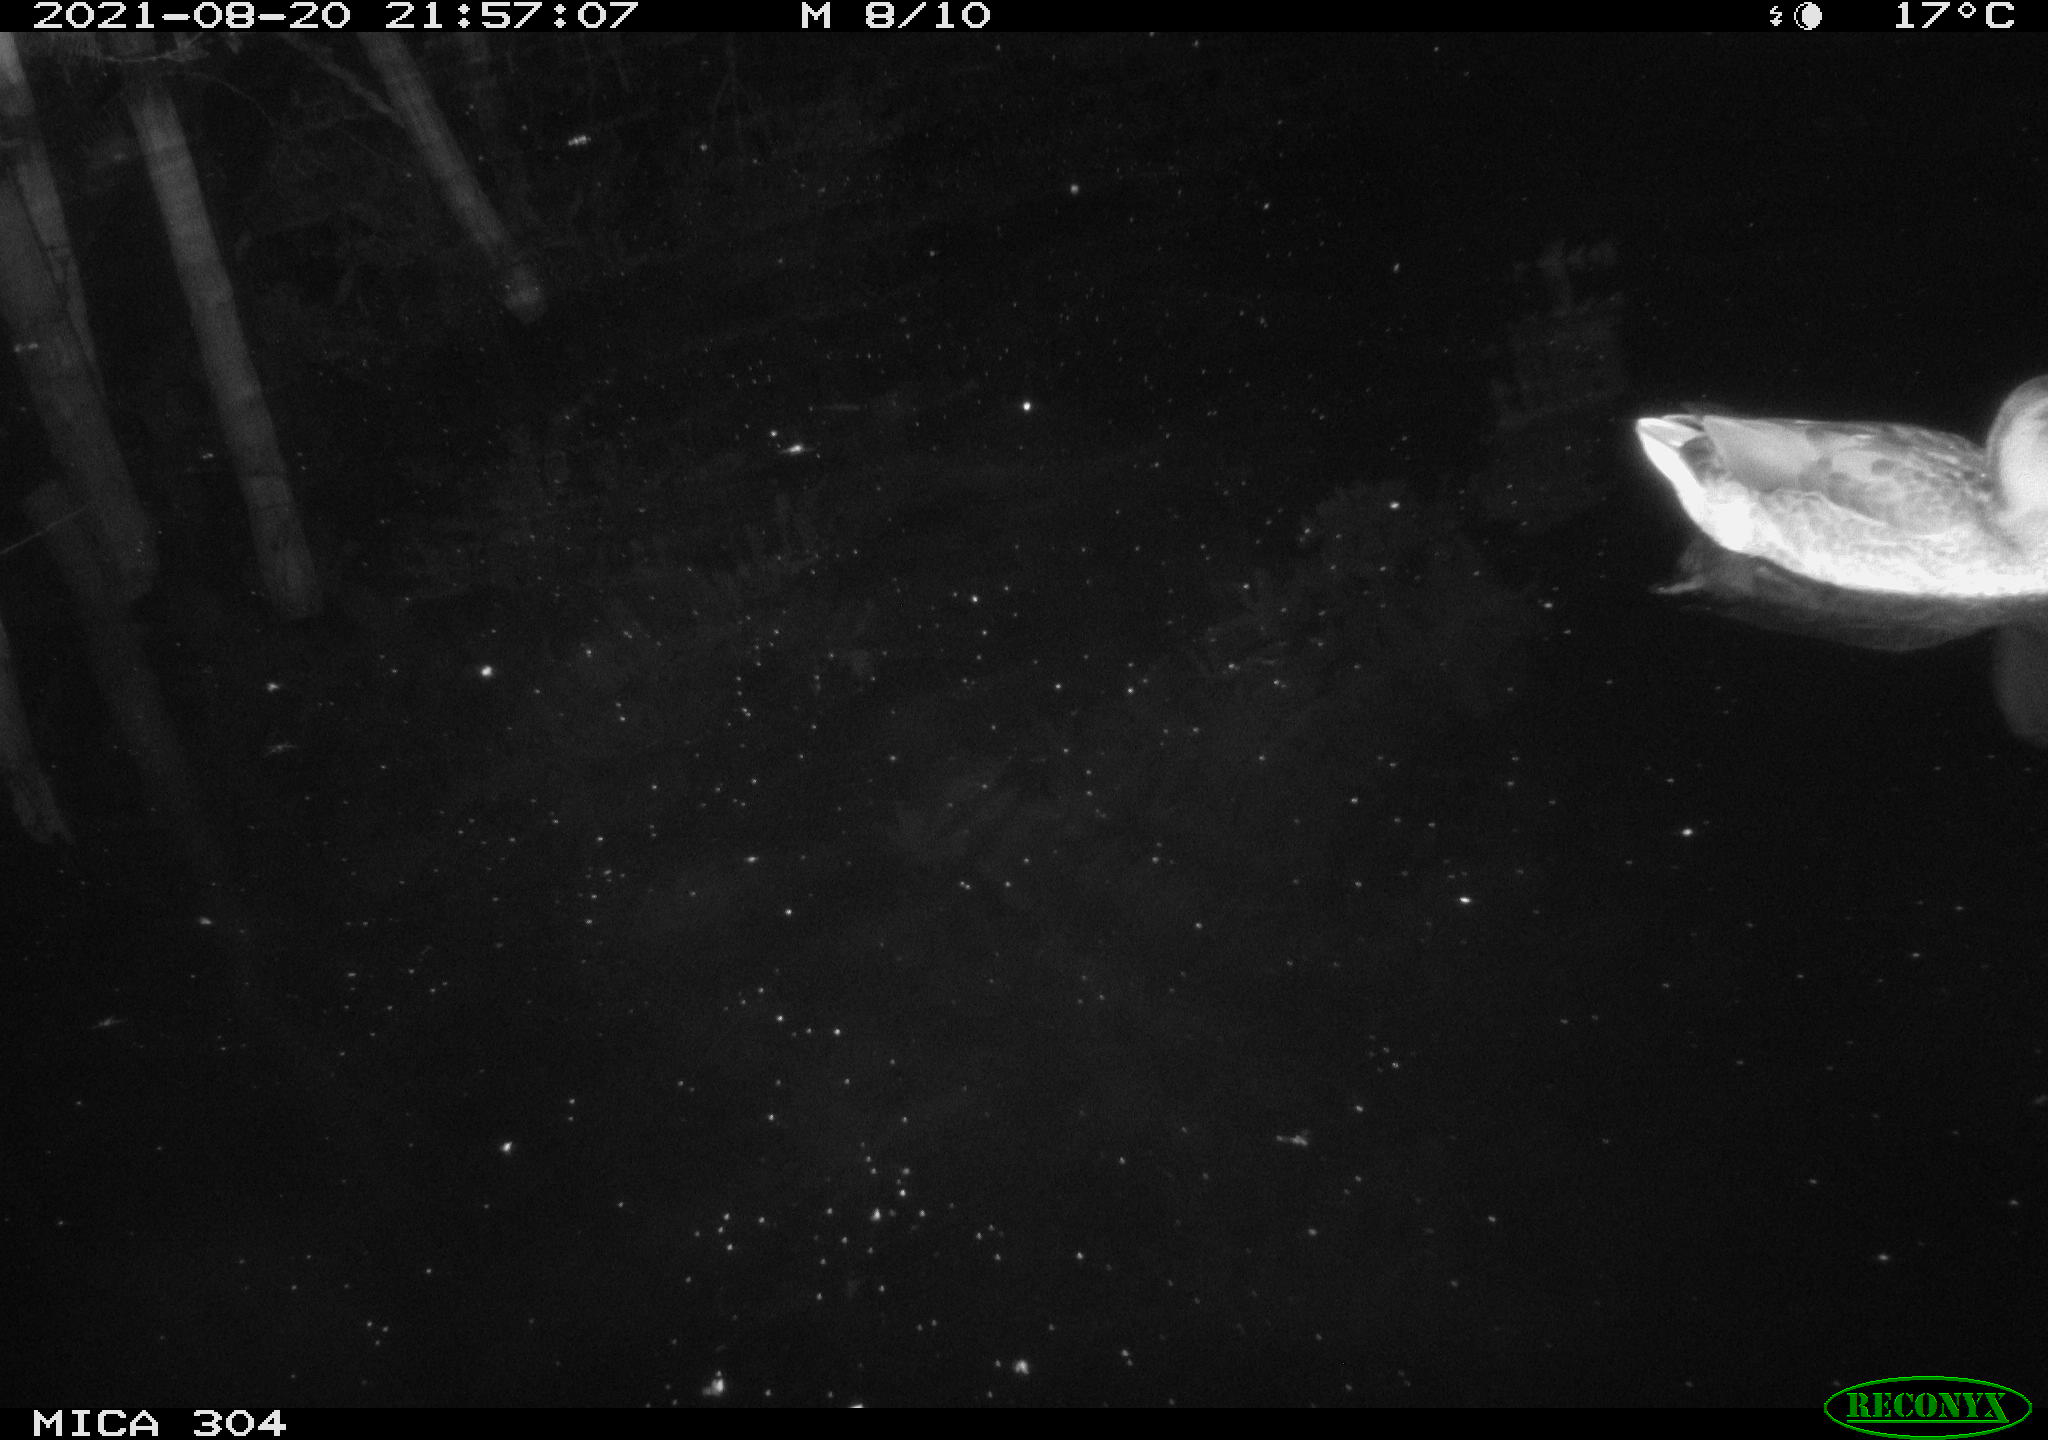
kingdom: Animalia
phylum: Chordata
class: Aves
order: Anseriformes
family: Anatidae
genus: Anas
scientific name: Anas platyrhynchos
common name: Mallard
